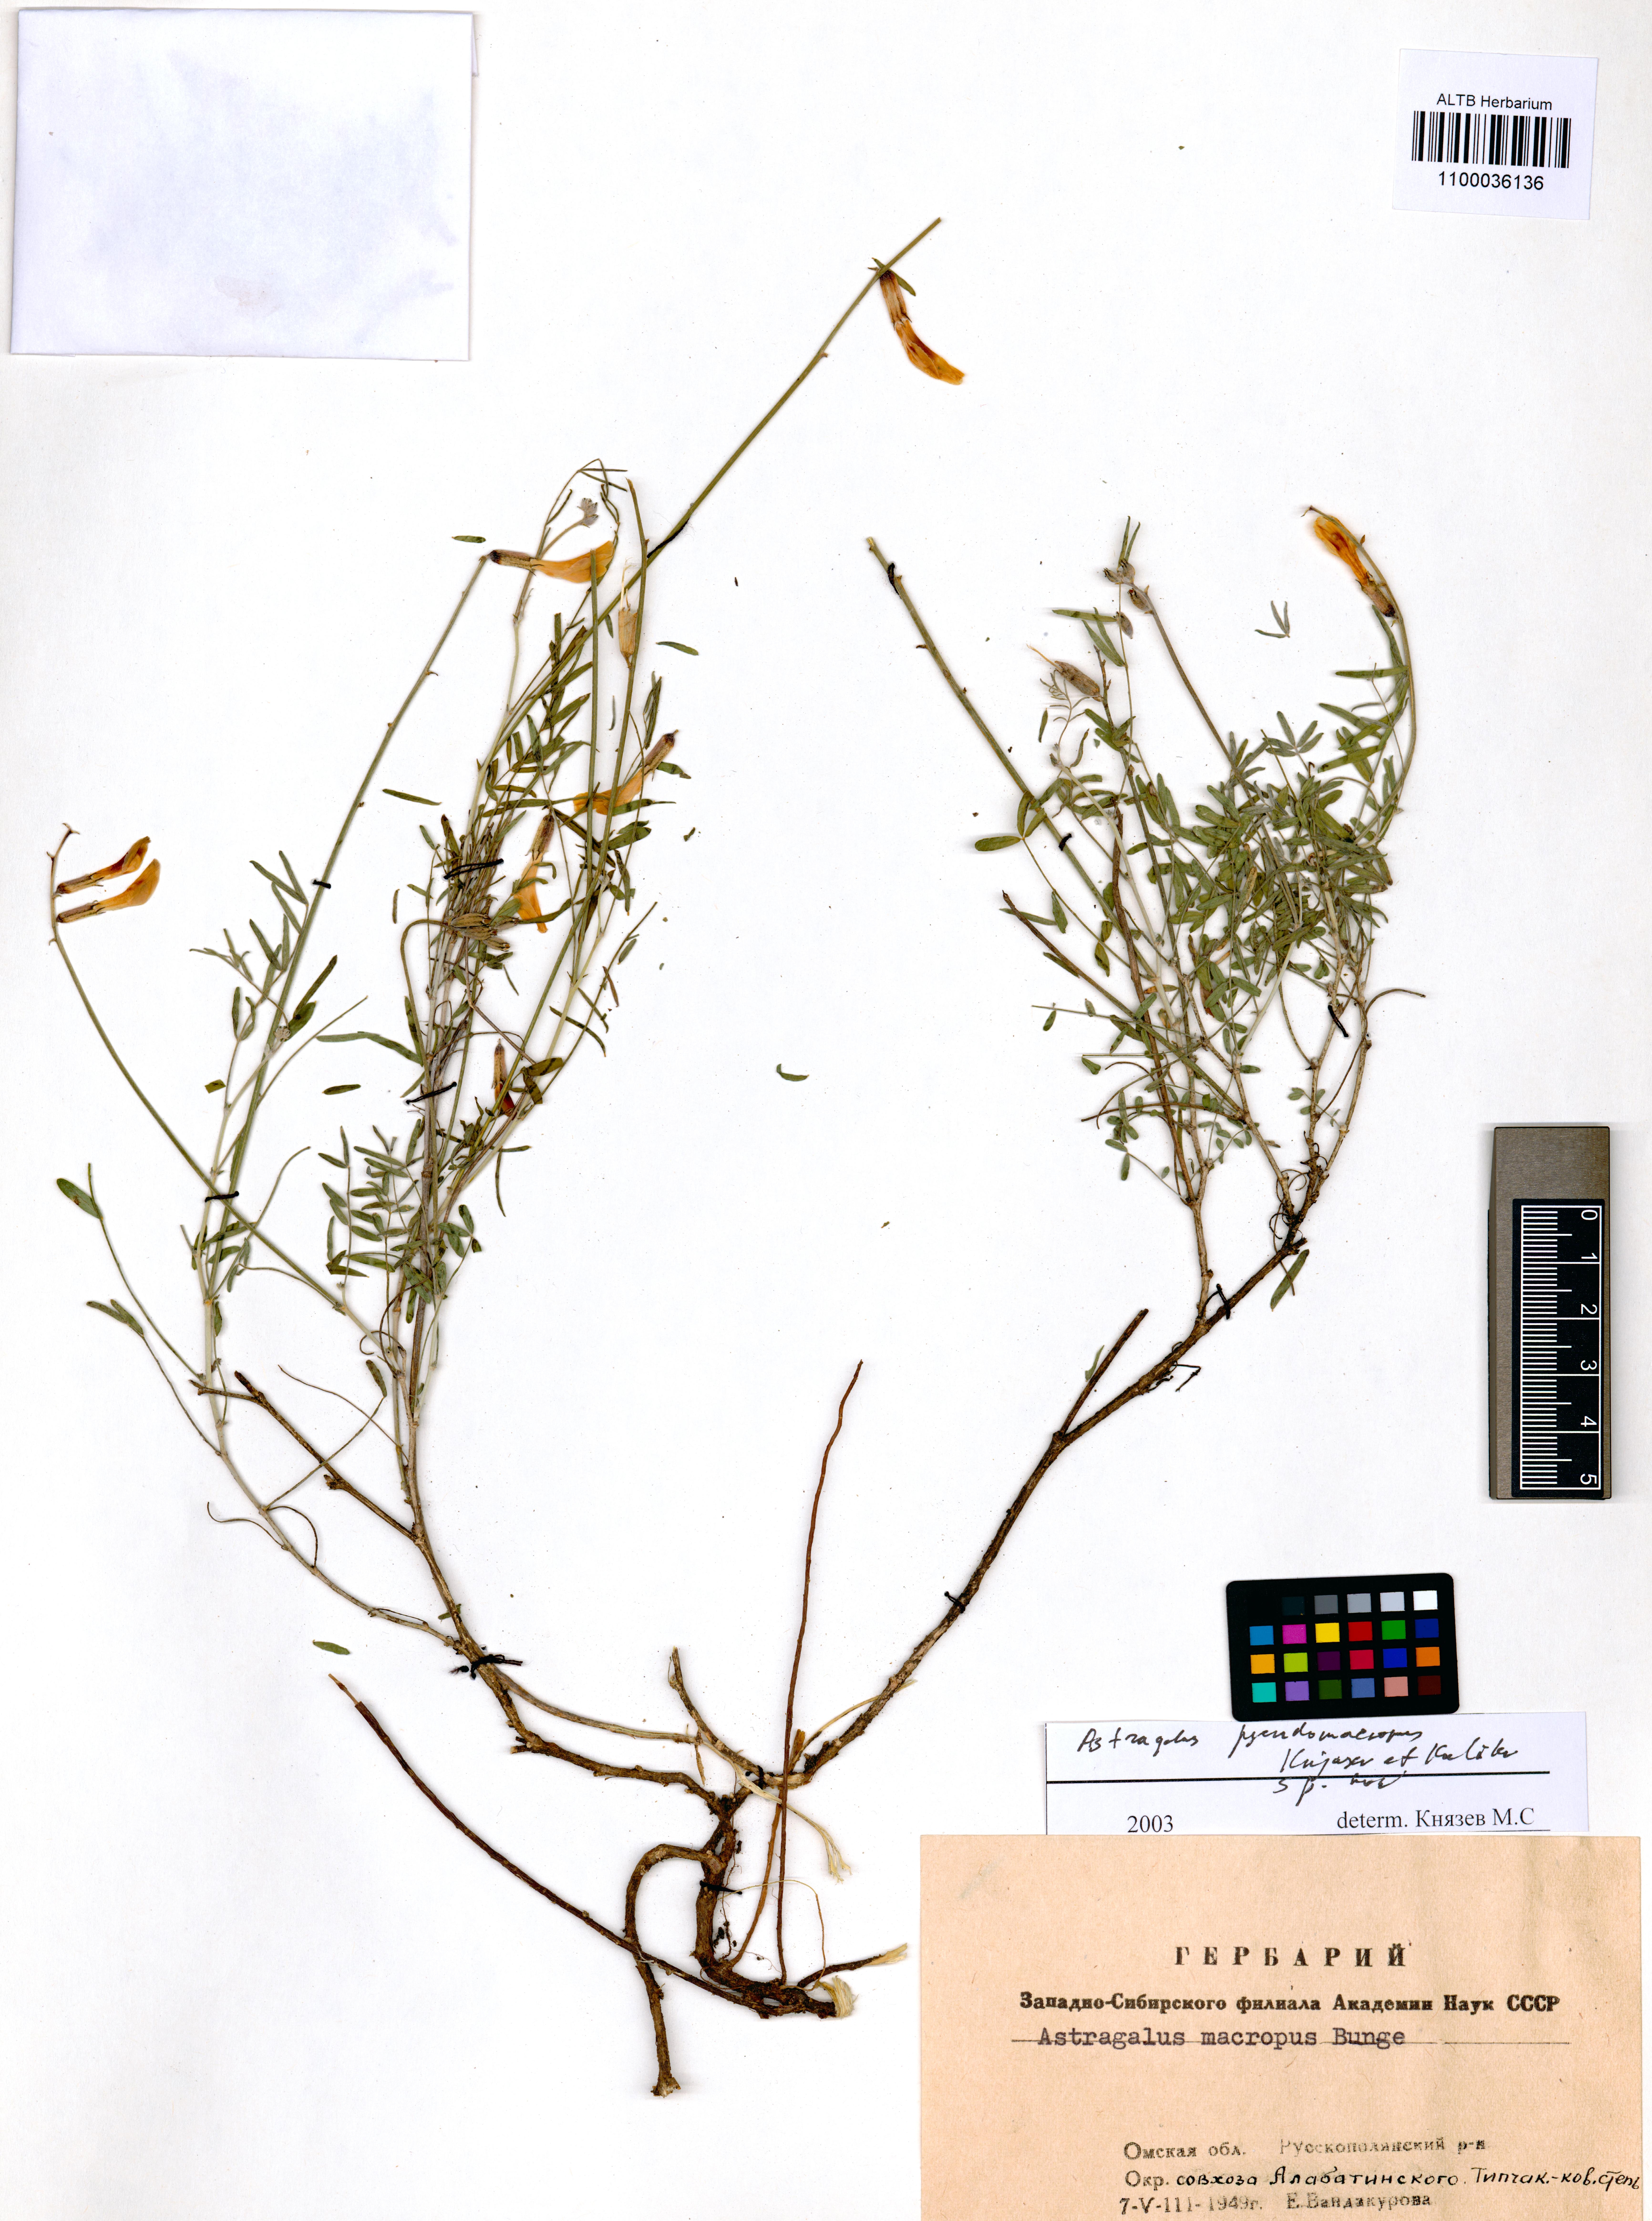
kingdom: Plantae
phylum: Tracheophyta
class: Magnoliopsida
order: Fabales
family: Fabaceae
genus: Astragalus
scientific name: Astragalus macropus
